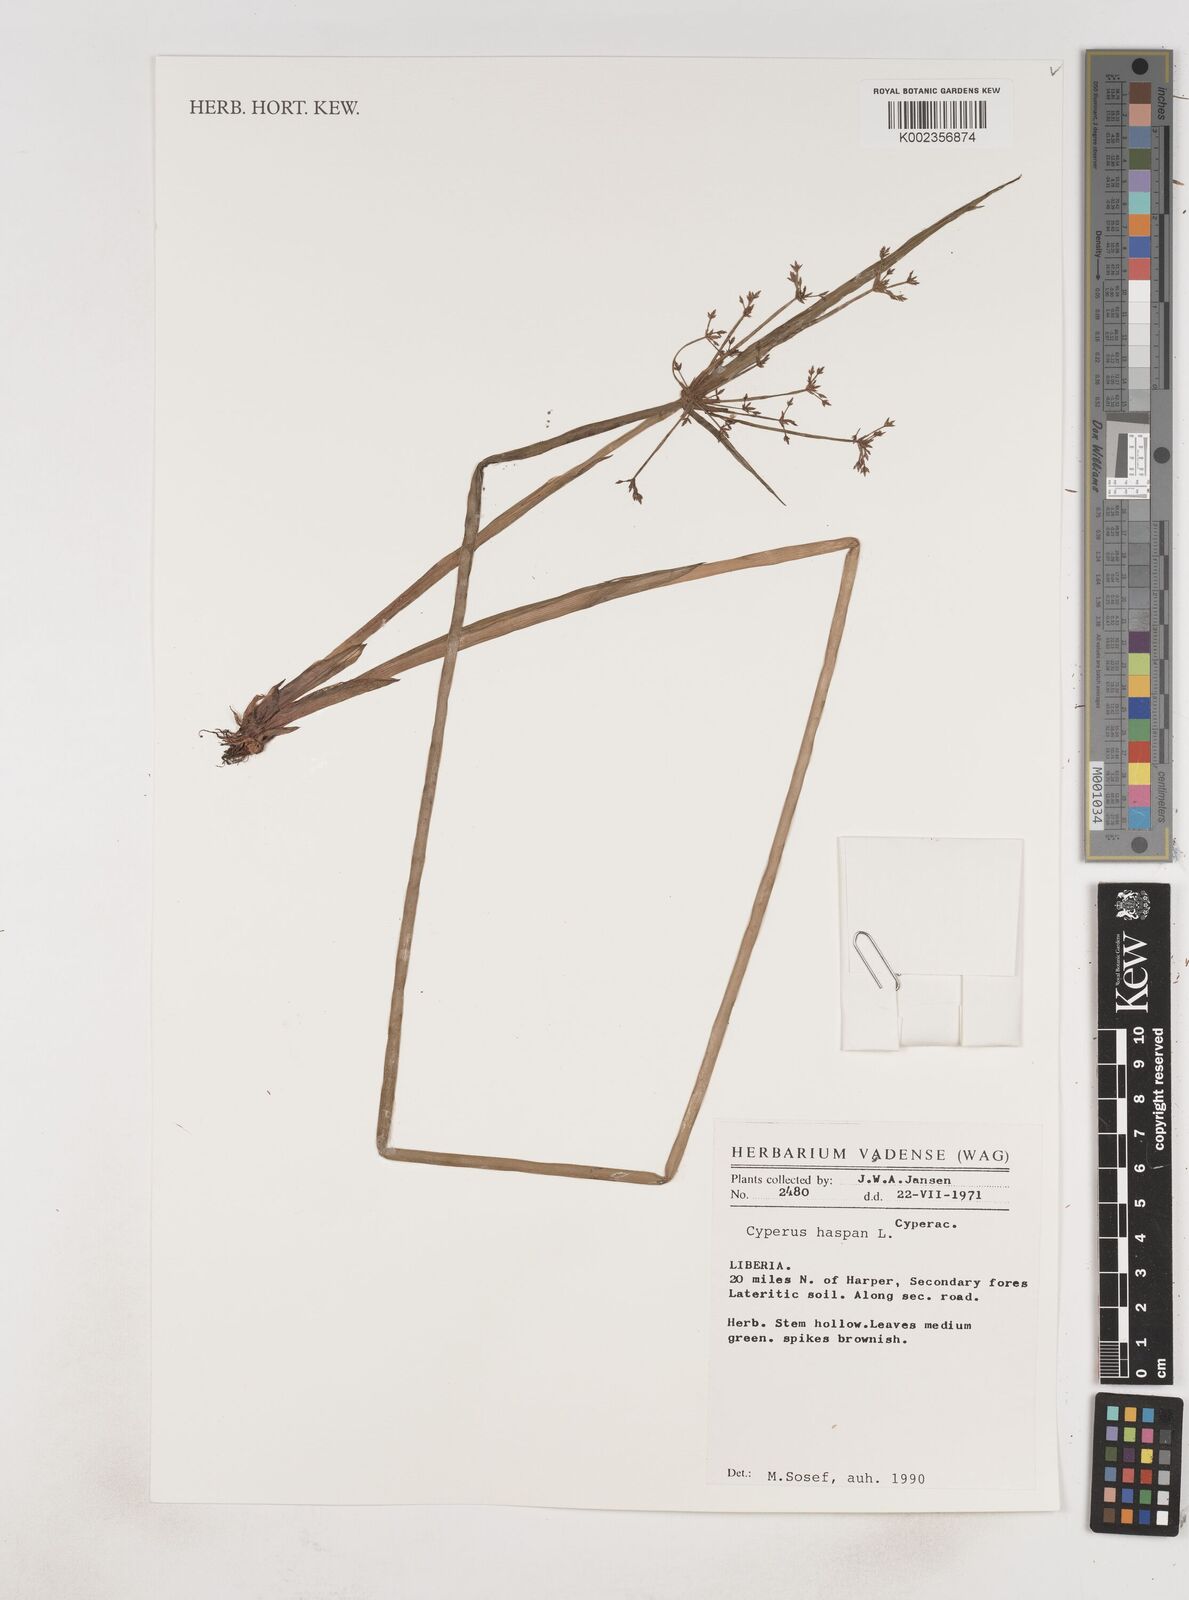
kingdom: Plantae
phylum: Tracheophyta
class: Liliopsida
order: Poales
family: Cyperaceae
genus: Cyperus
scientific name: Cyperus haspan
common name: Haspan flatsedge
